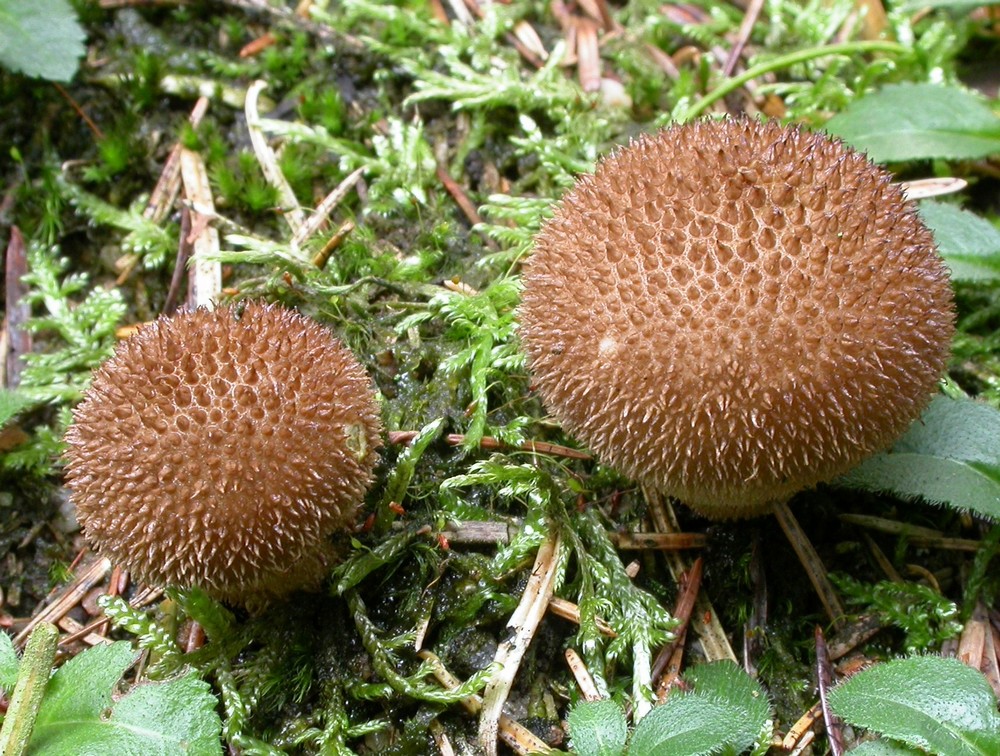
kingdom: Fungi
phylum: Basidiomycota
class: Agaricomycetes
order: Agaricales
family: Lycoperdaceae
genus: Lycoperdon
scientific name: Lycoperdon nigrescens
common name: sortagtig støvbold
